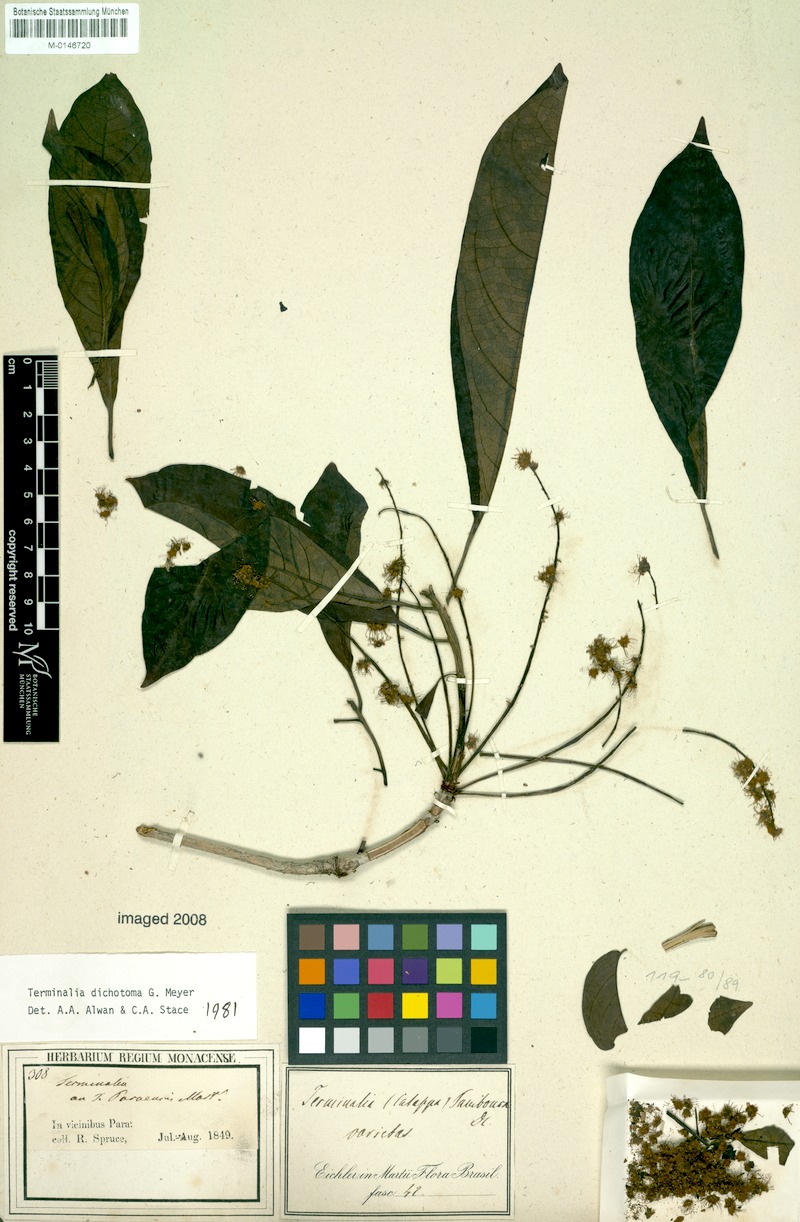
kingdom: Plantae
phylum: Tracheophyta
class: Magnoliopsida
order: Myrtales
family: Combretaceae
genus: Terminalia
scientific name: Terminalia dichotoma
